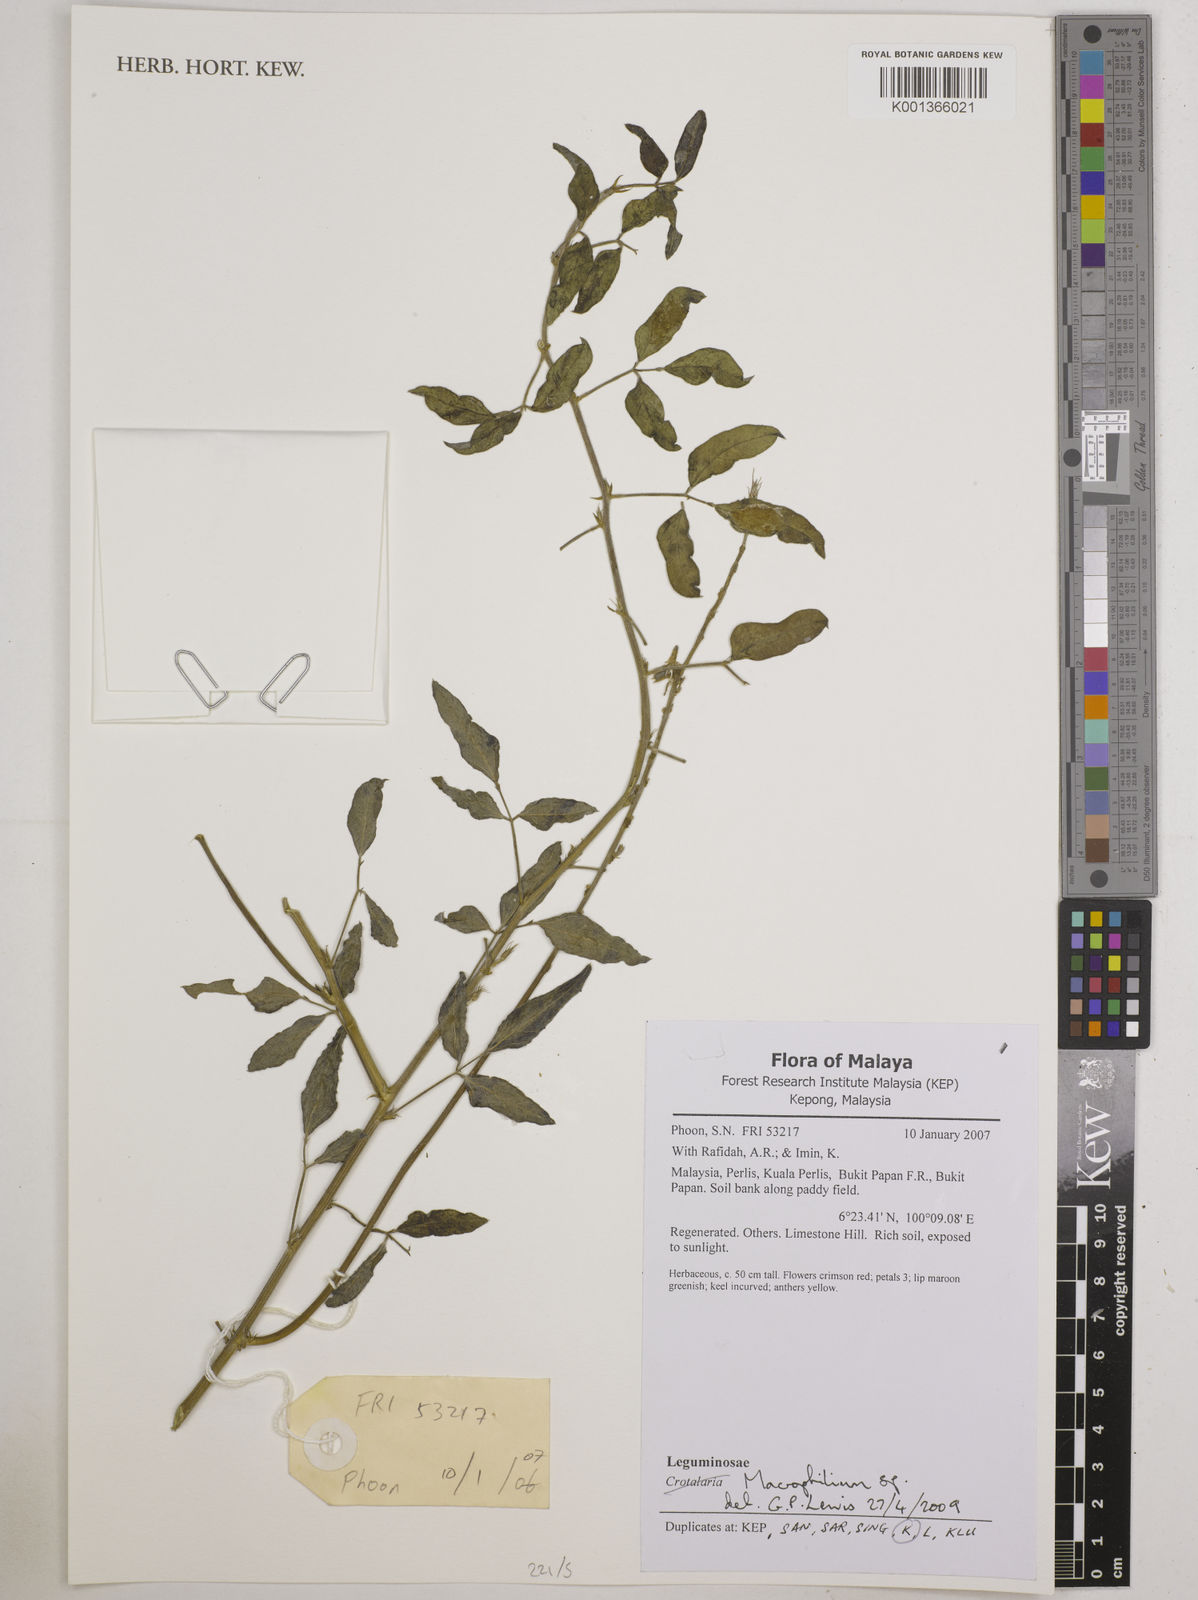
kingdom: Plantae
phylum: Tracheophyta
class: Magnoliopsida
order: Fabales
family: Fabaceae
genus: Macroptilium
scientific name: Macroptilium
